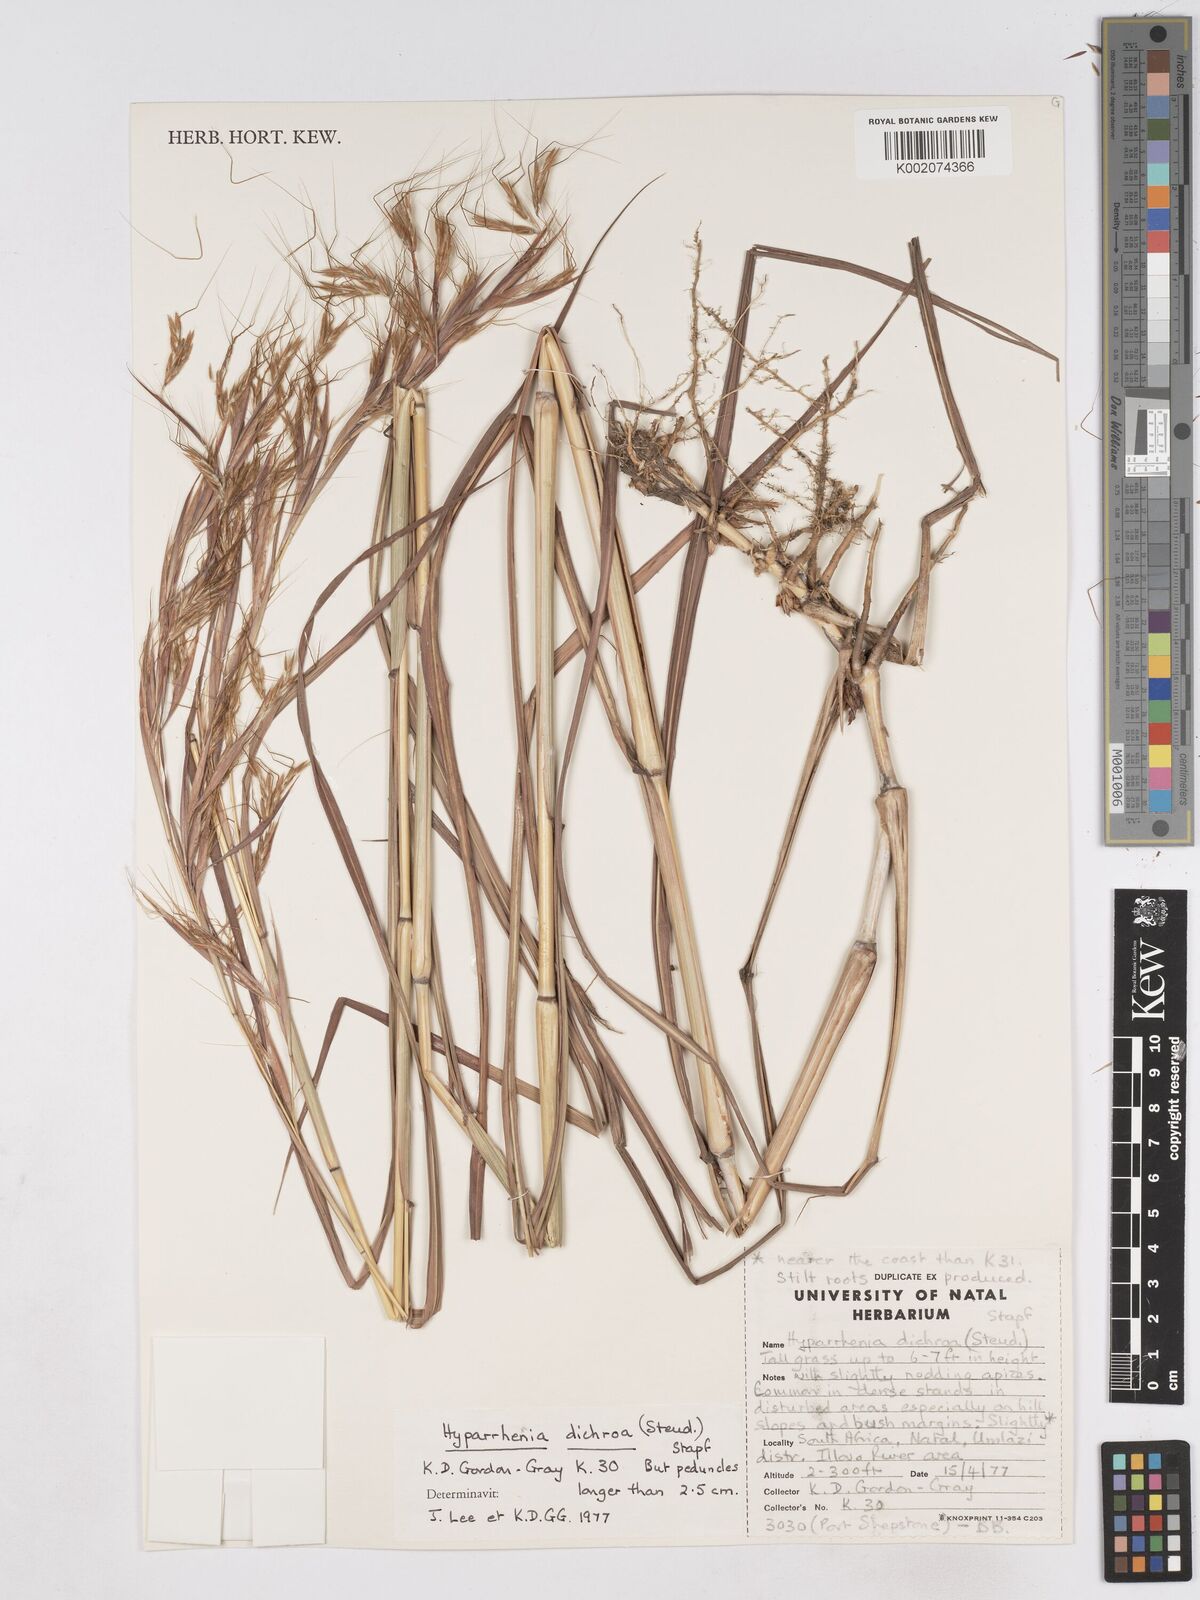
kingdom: Plantae
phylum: Tracheophyta
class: Liliopsida
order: Poales
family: Poaceae
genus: Hyparrhenia
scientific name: Hyparrhenia dichroa
